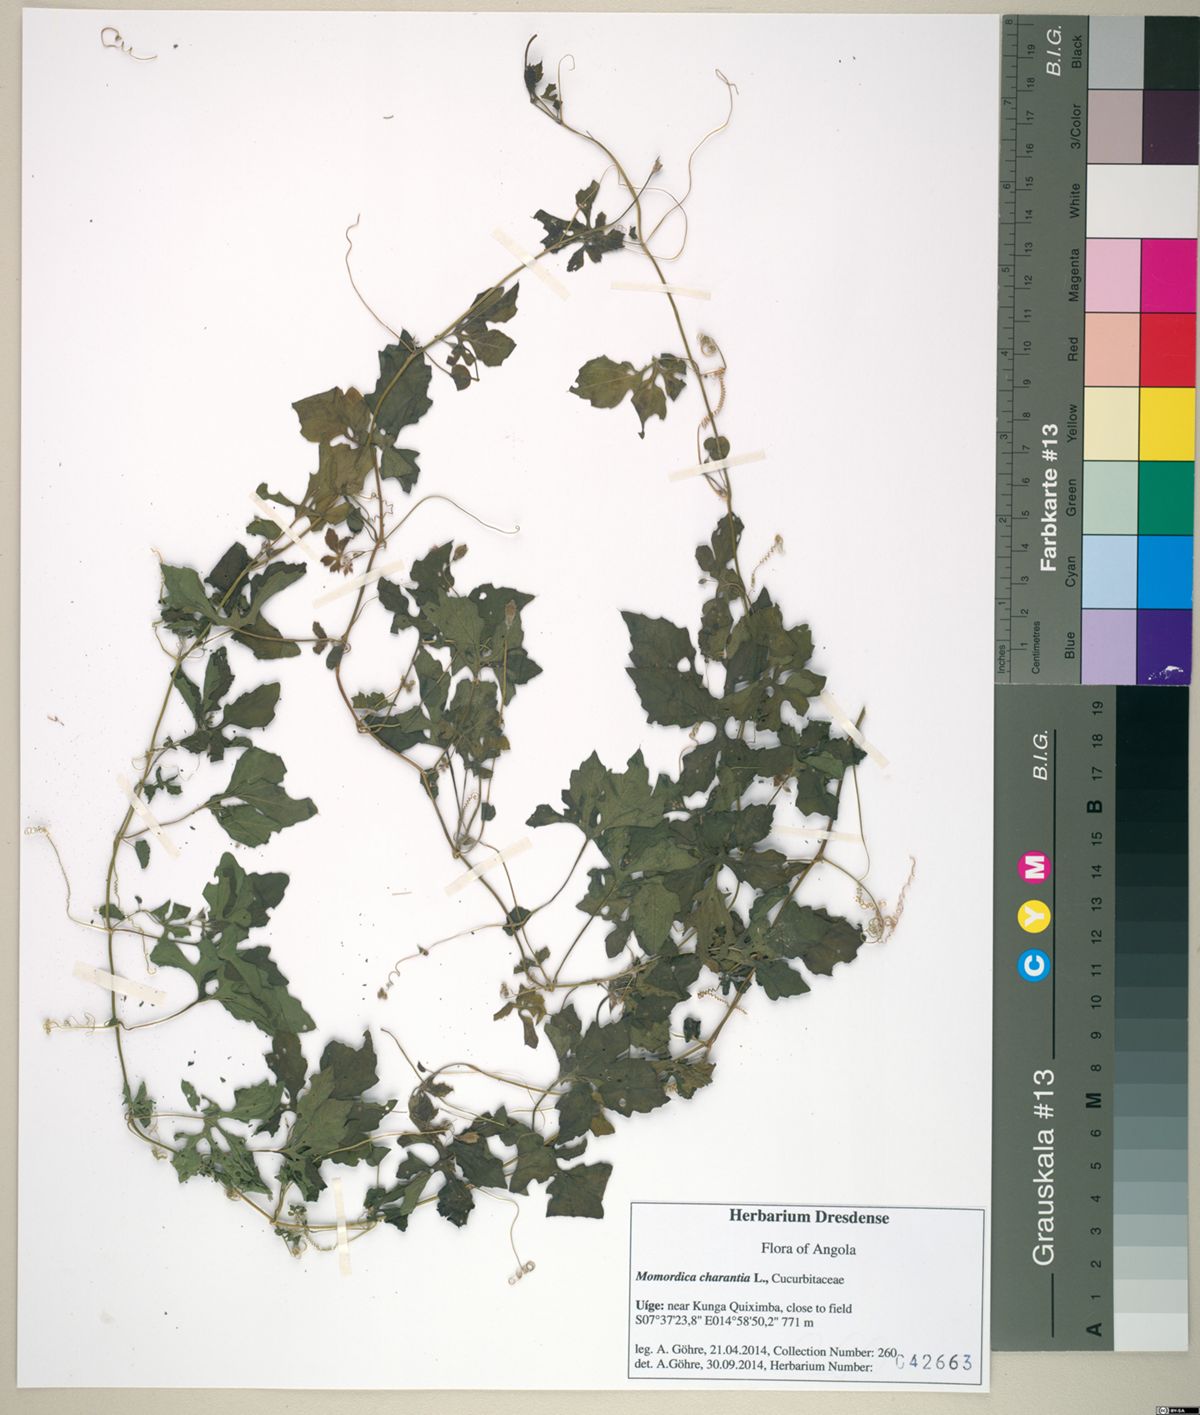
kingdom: Plantae
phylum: Tracheophyta
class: Magnoliopsida
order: Cucurbitales
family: Cucurbitaceae
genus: Momordica
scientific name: Momordica charantia
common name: Balsampear
